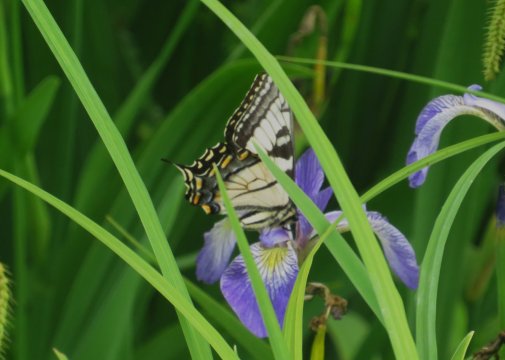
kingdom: Animalia
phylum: Arthropoda
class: Insecta
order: Lepidoptera
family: Papilionidae
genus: Pterourus
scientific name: Pterourus glaucus
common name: Eastern Tiger Swallowtail
